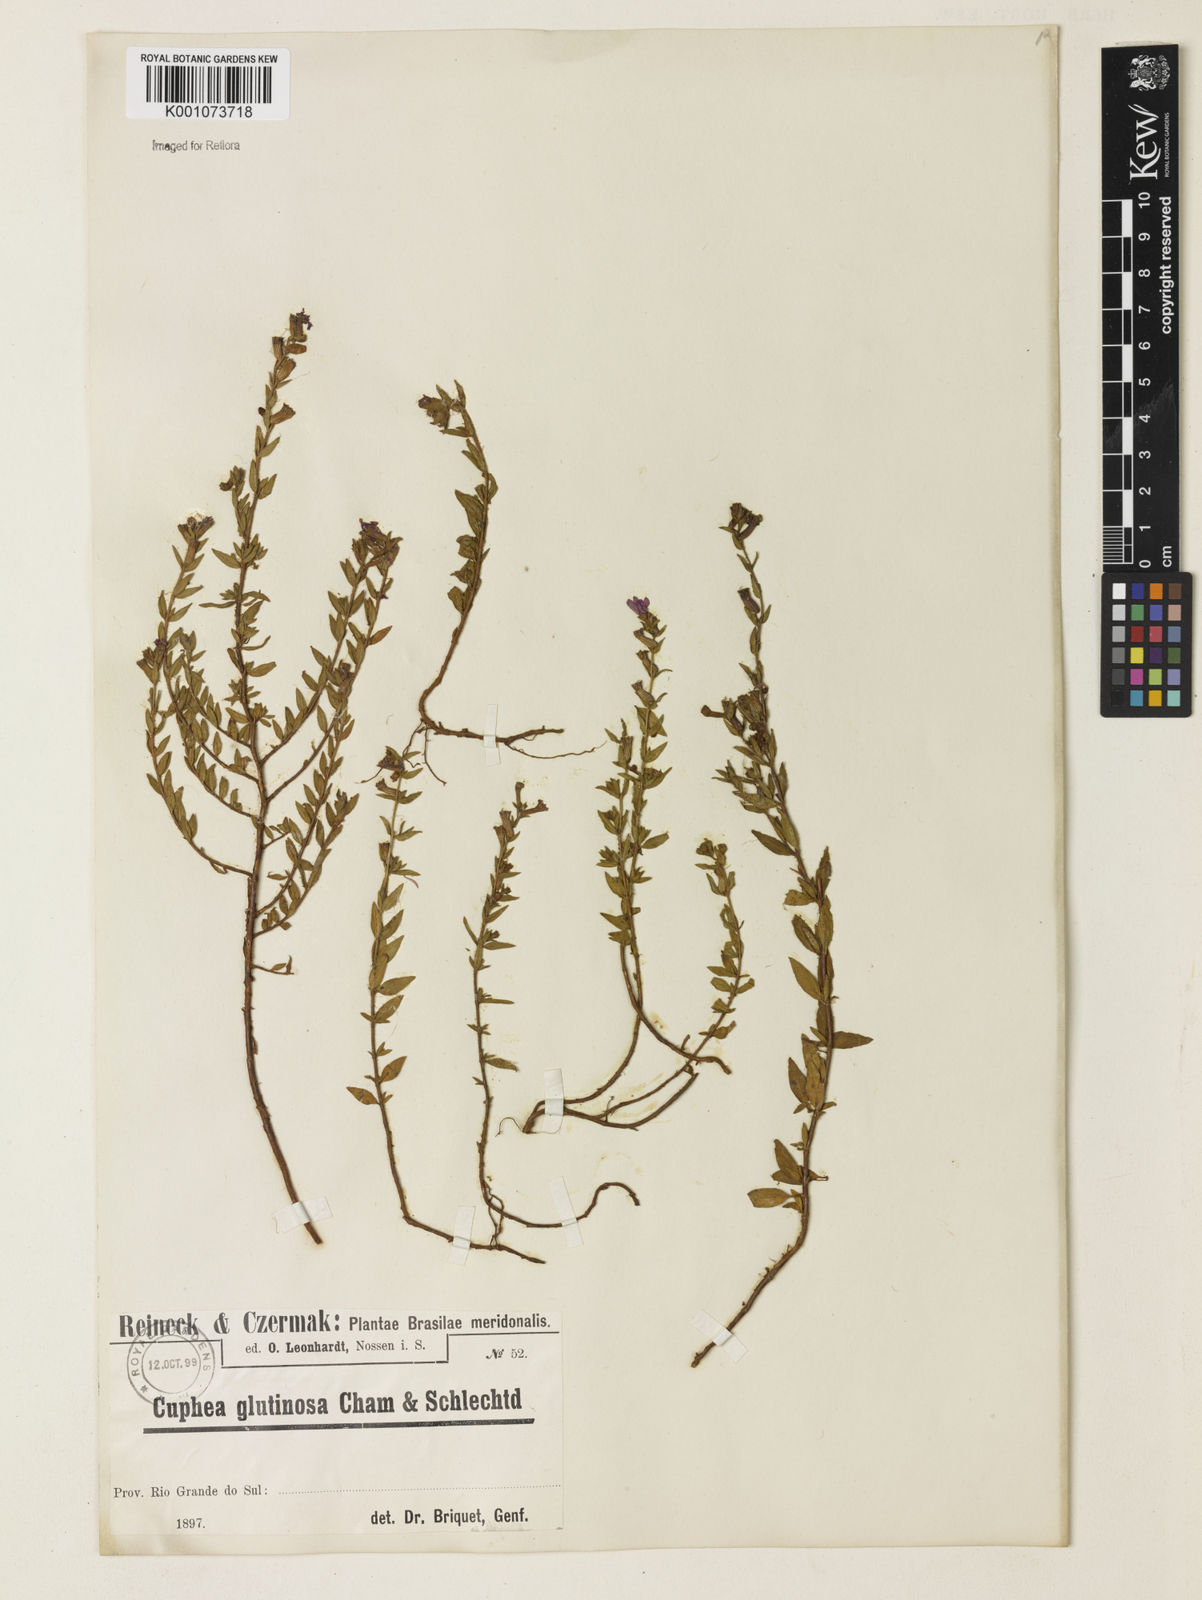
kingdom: Plantae
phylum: Tracheophyta
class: Magnoliopsida
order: Myrtales
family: Lythraceae
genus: Cuphea
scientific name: Cuphea glutinosa
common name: Sticky waxweed
